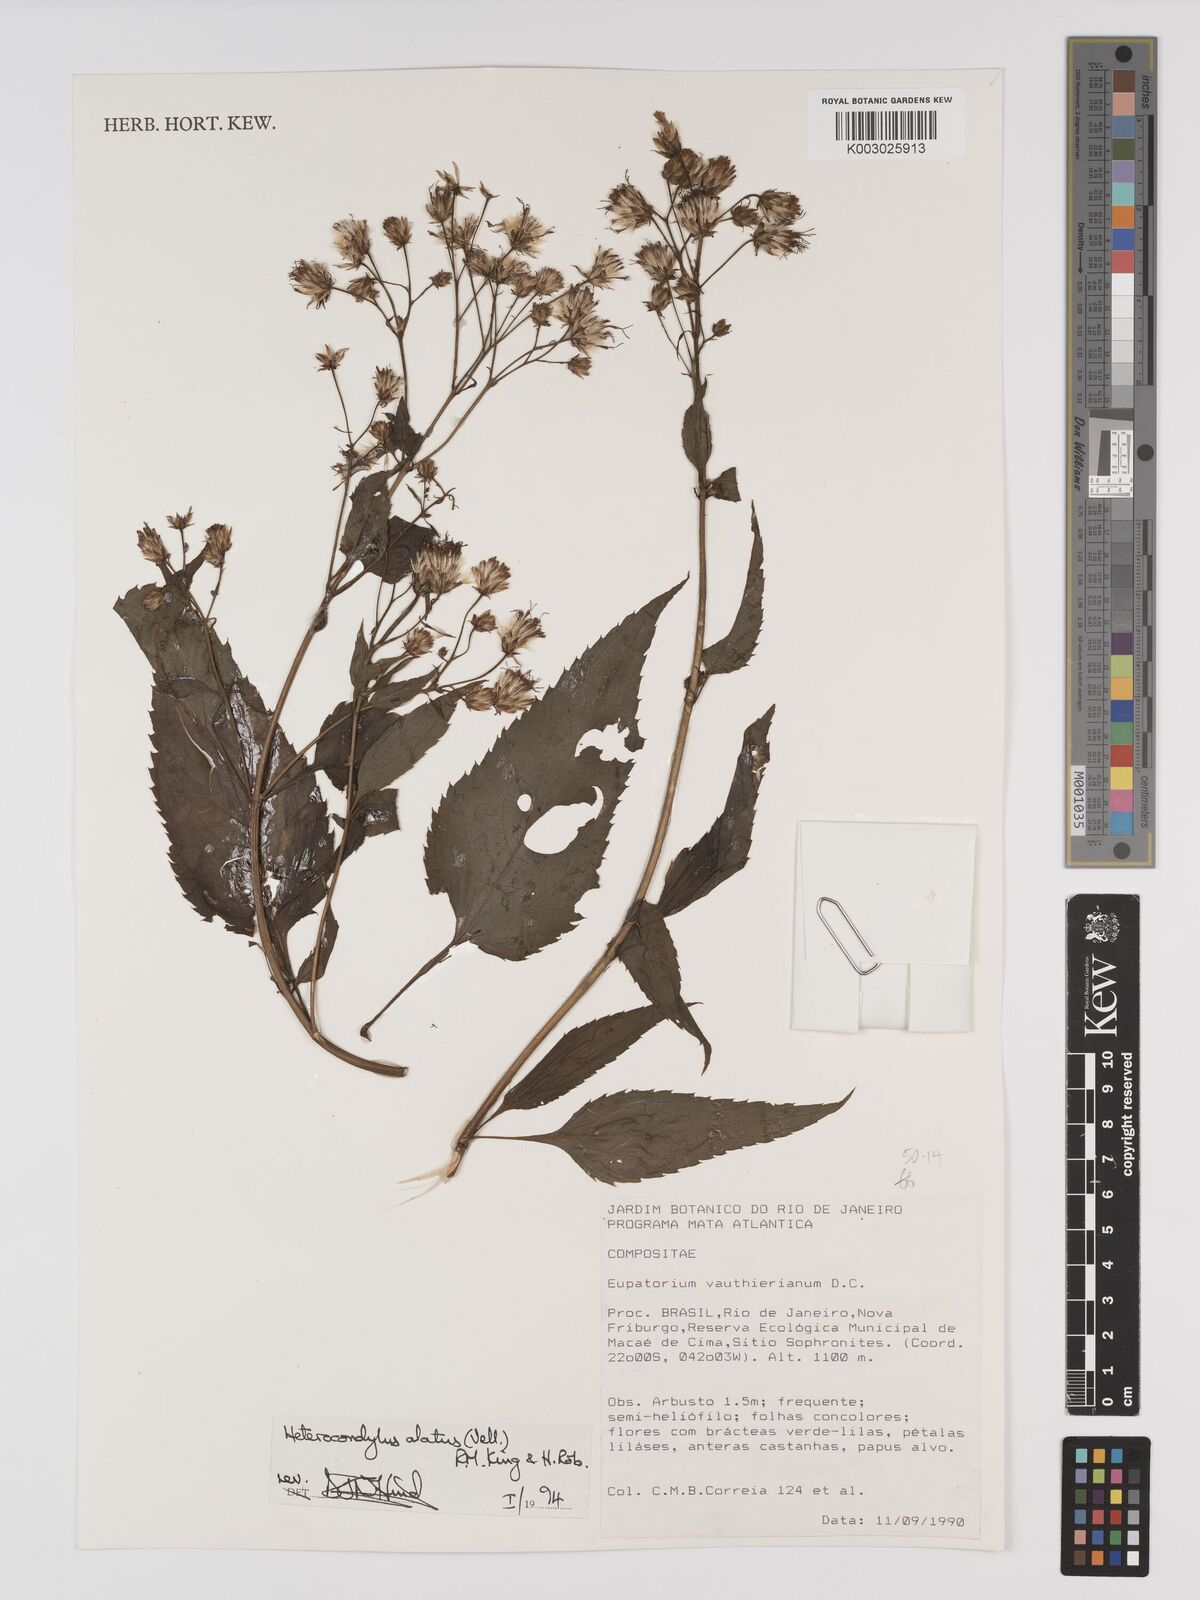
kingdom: Plantae
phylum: Tracheophyta
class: Magnoliopsida
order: Asterales
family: Asteraceae
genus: Heterocondylus
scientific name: Heterocondylus alatus
